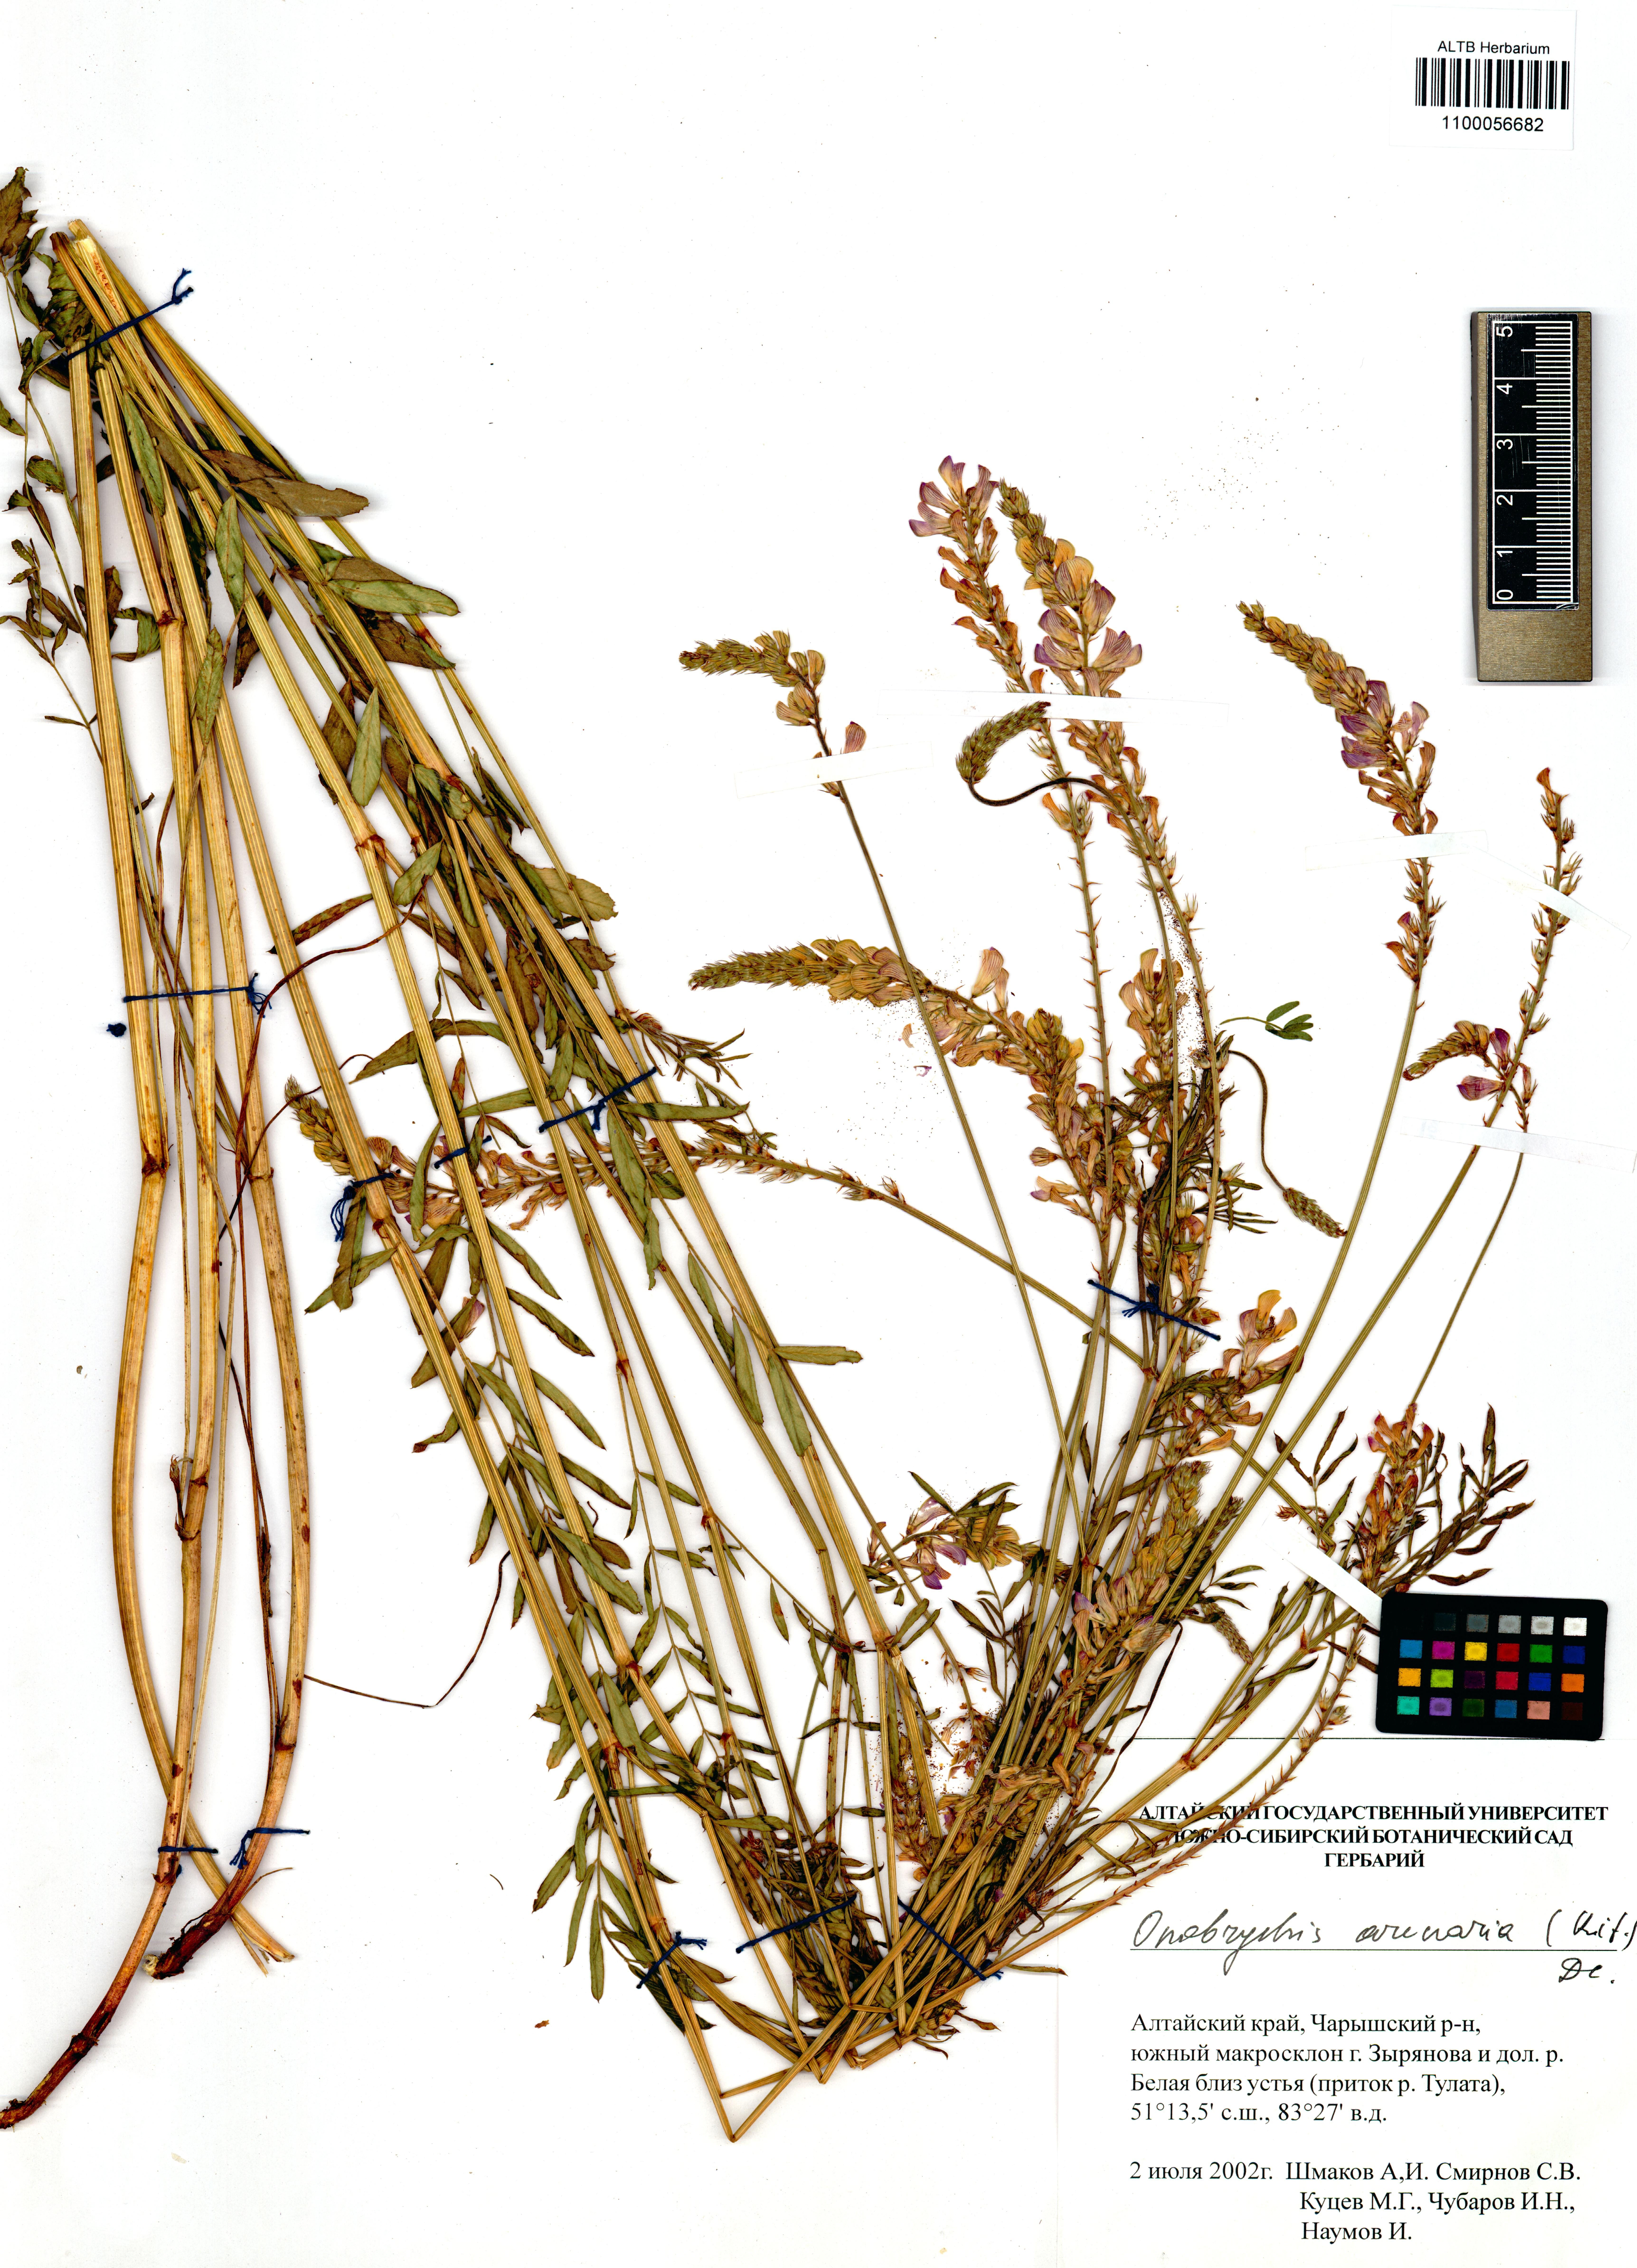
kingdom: Plantae
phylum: Tracheophyta
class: Magnoliopsida
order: Fabales
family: Fabaceae
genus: Onobrychis
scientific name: Onobrychis arenaria
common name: Sand esparcet
